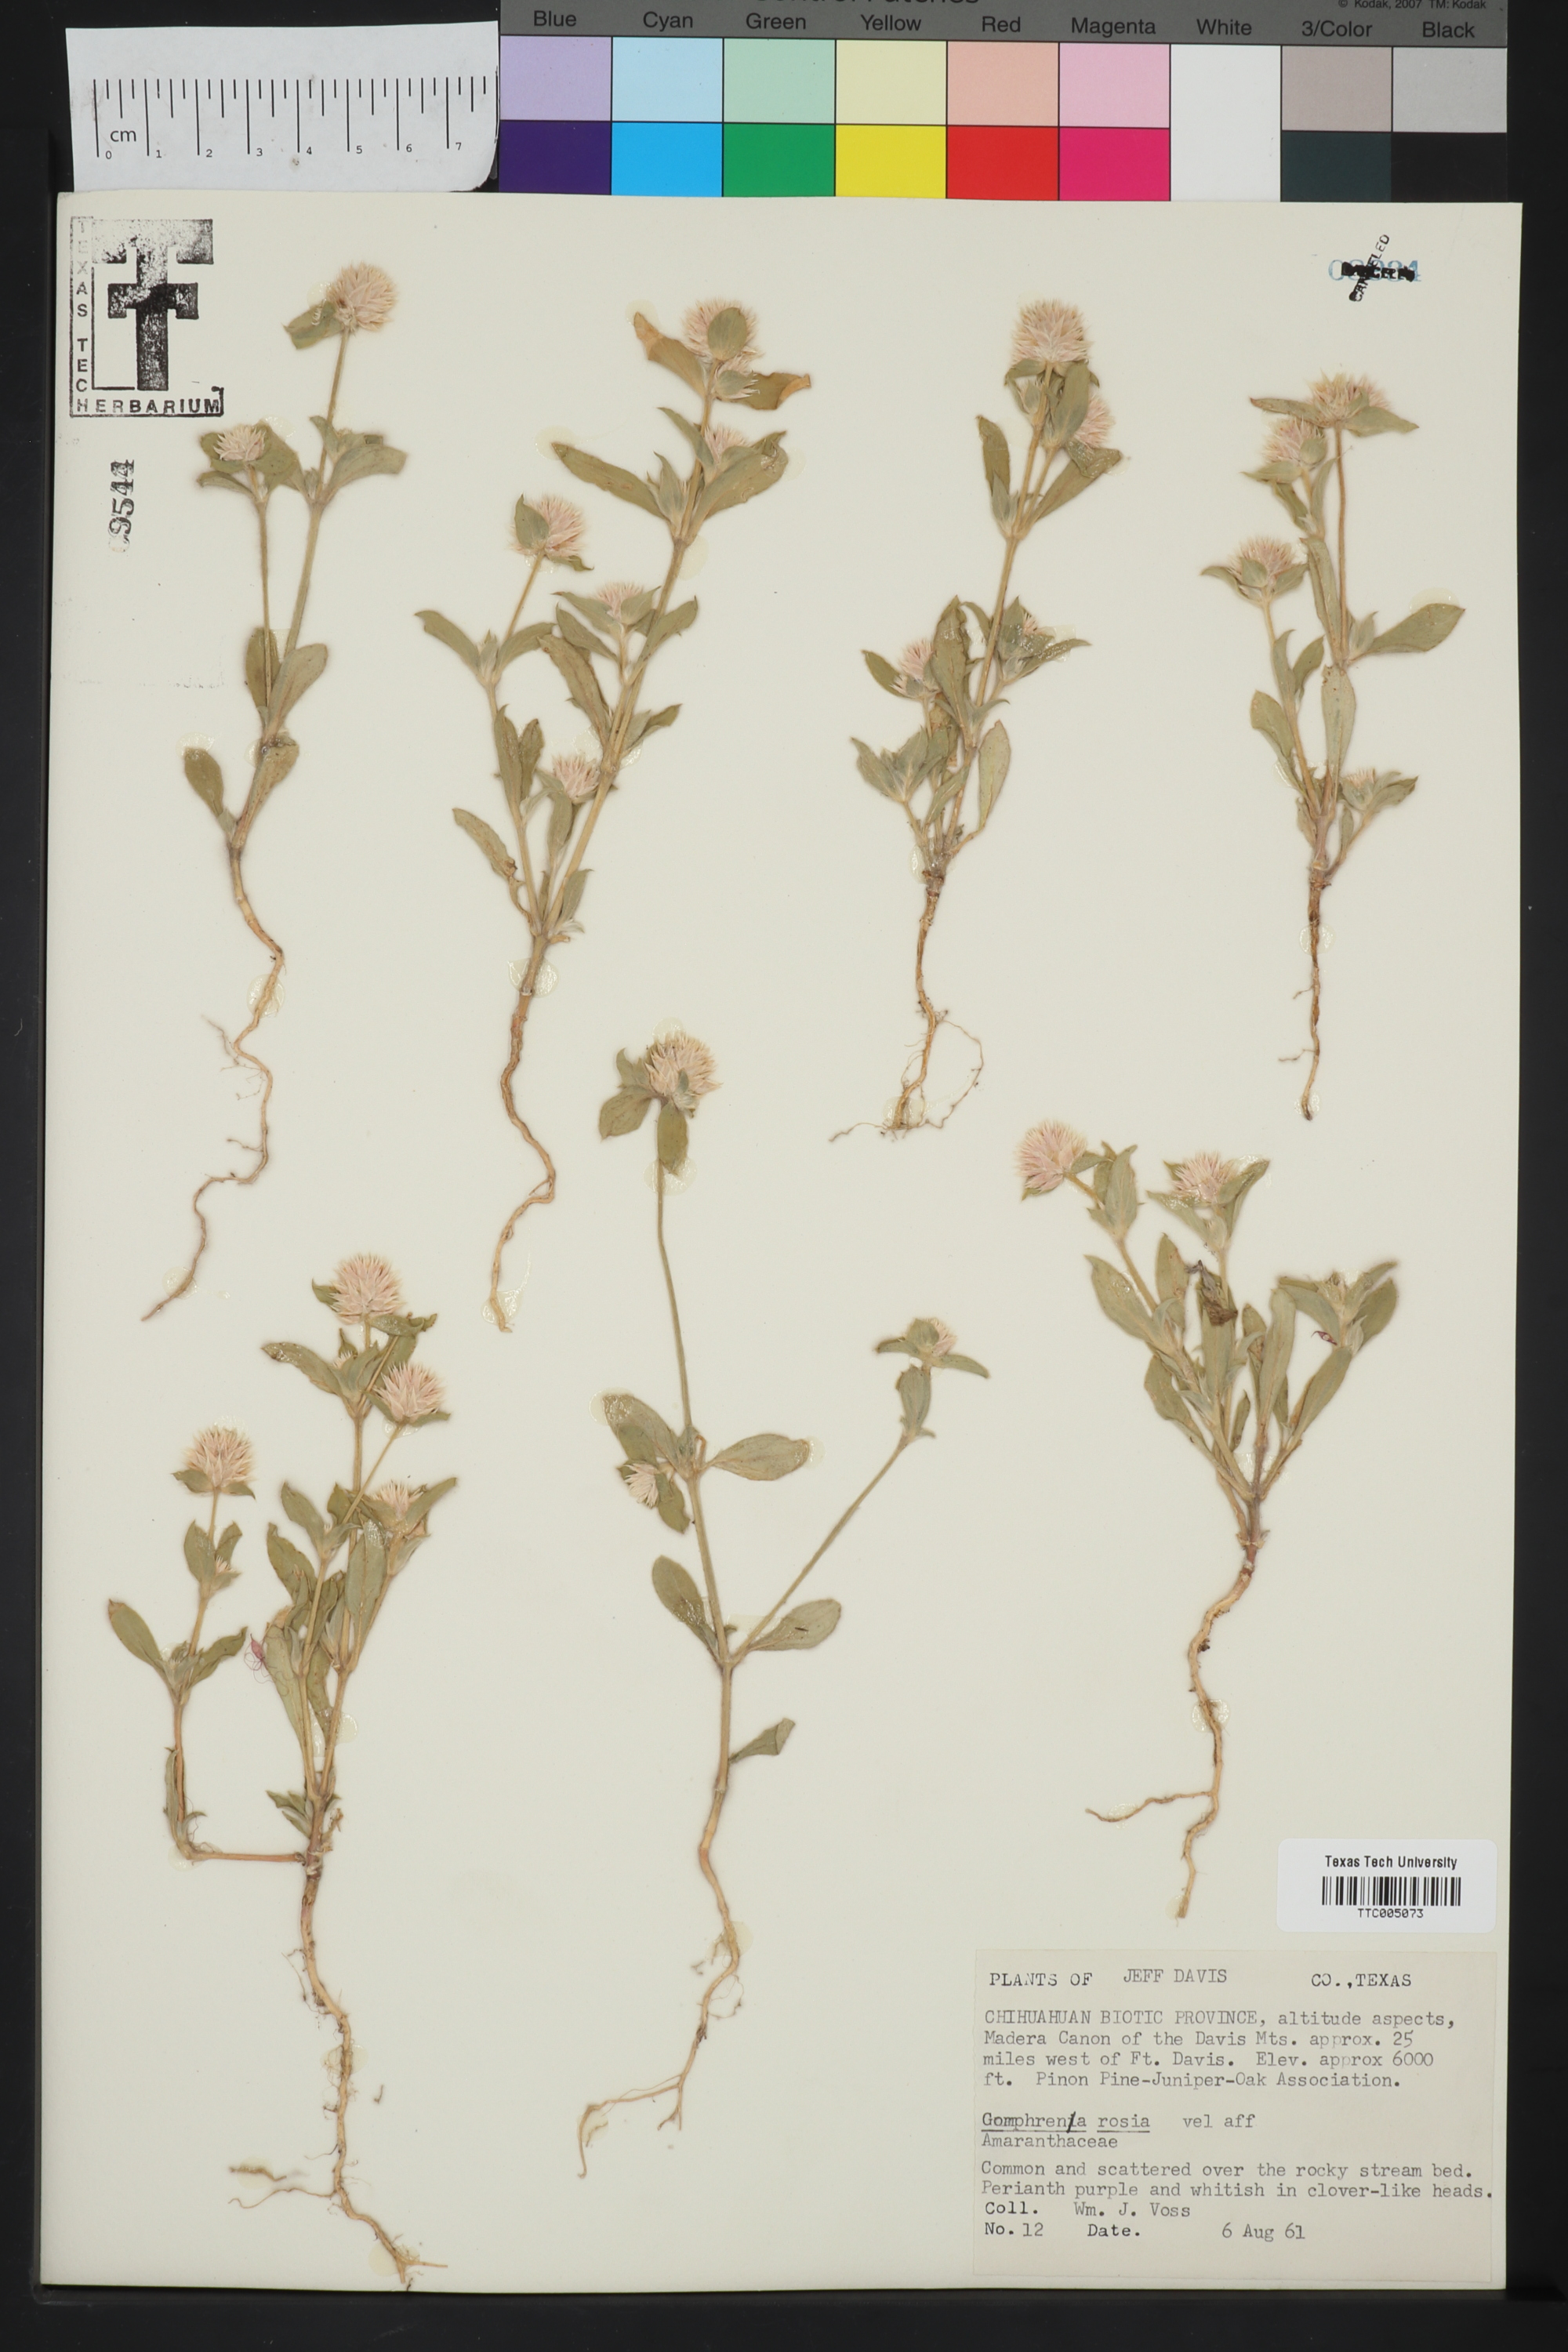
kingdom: Plantae
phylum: Tracheophyta
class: Magnoliopsida
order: Caryophyllales
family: Amaranthaceae
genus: Gomphrena
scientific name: Gomphrena pulchella
